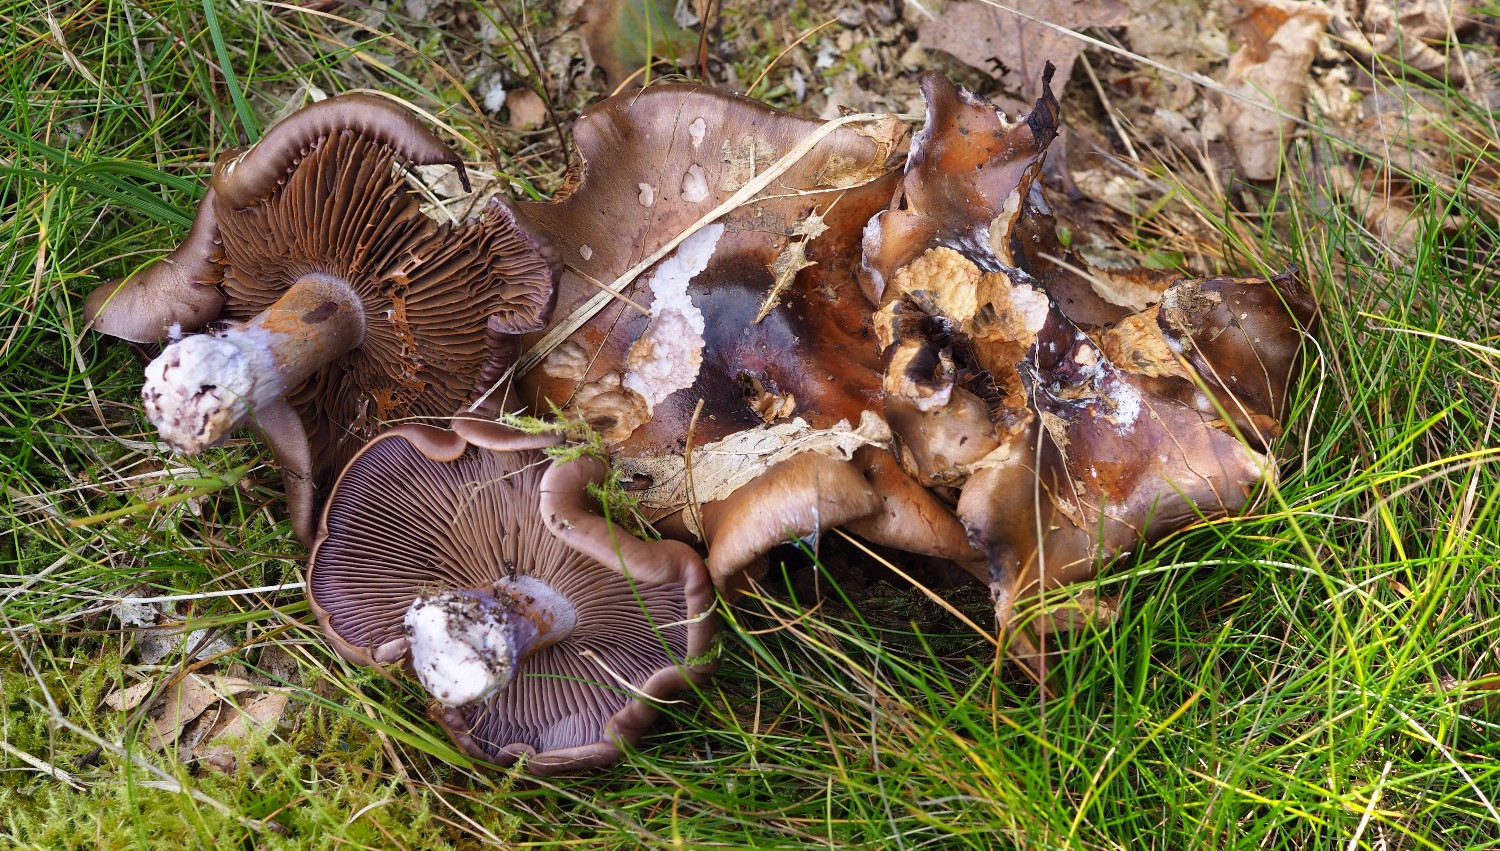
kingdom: Fungi
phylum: Basidiomycota
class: Agaricomycetes
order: Agaricales
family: Cortinariaceae
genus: Thaxterogaster
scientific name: Thaxterogaster subpurpurascens
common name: mørkblånende slørhat
